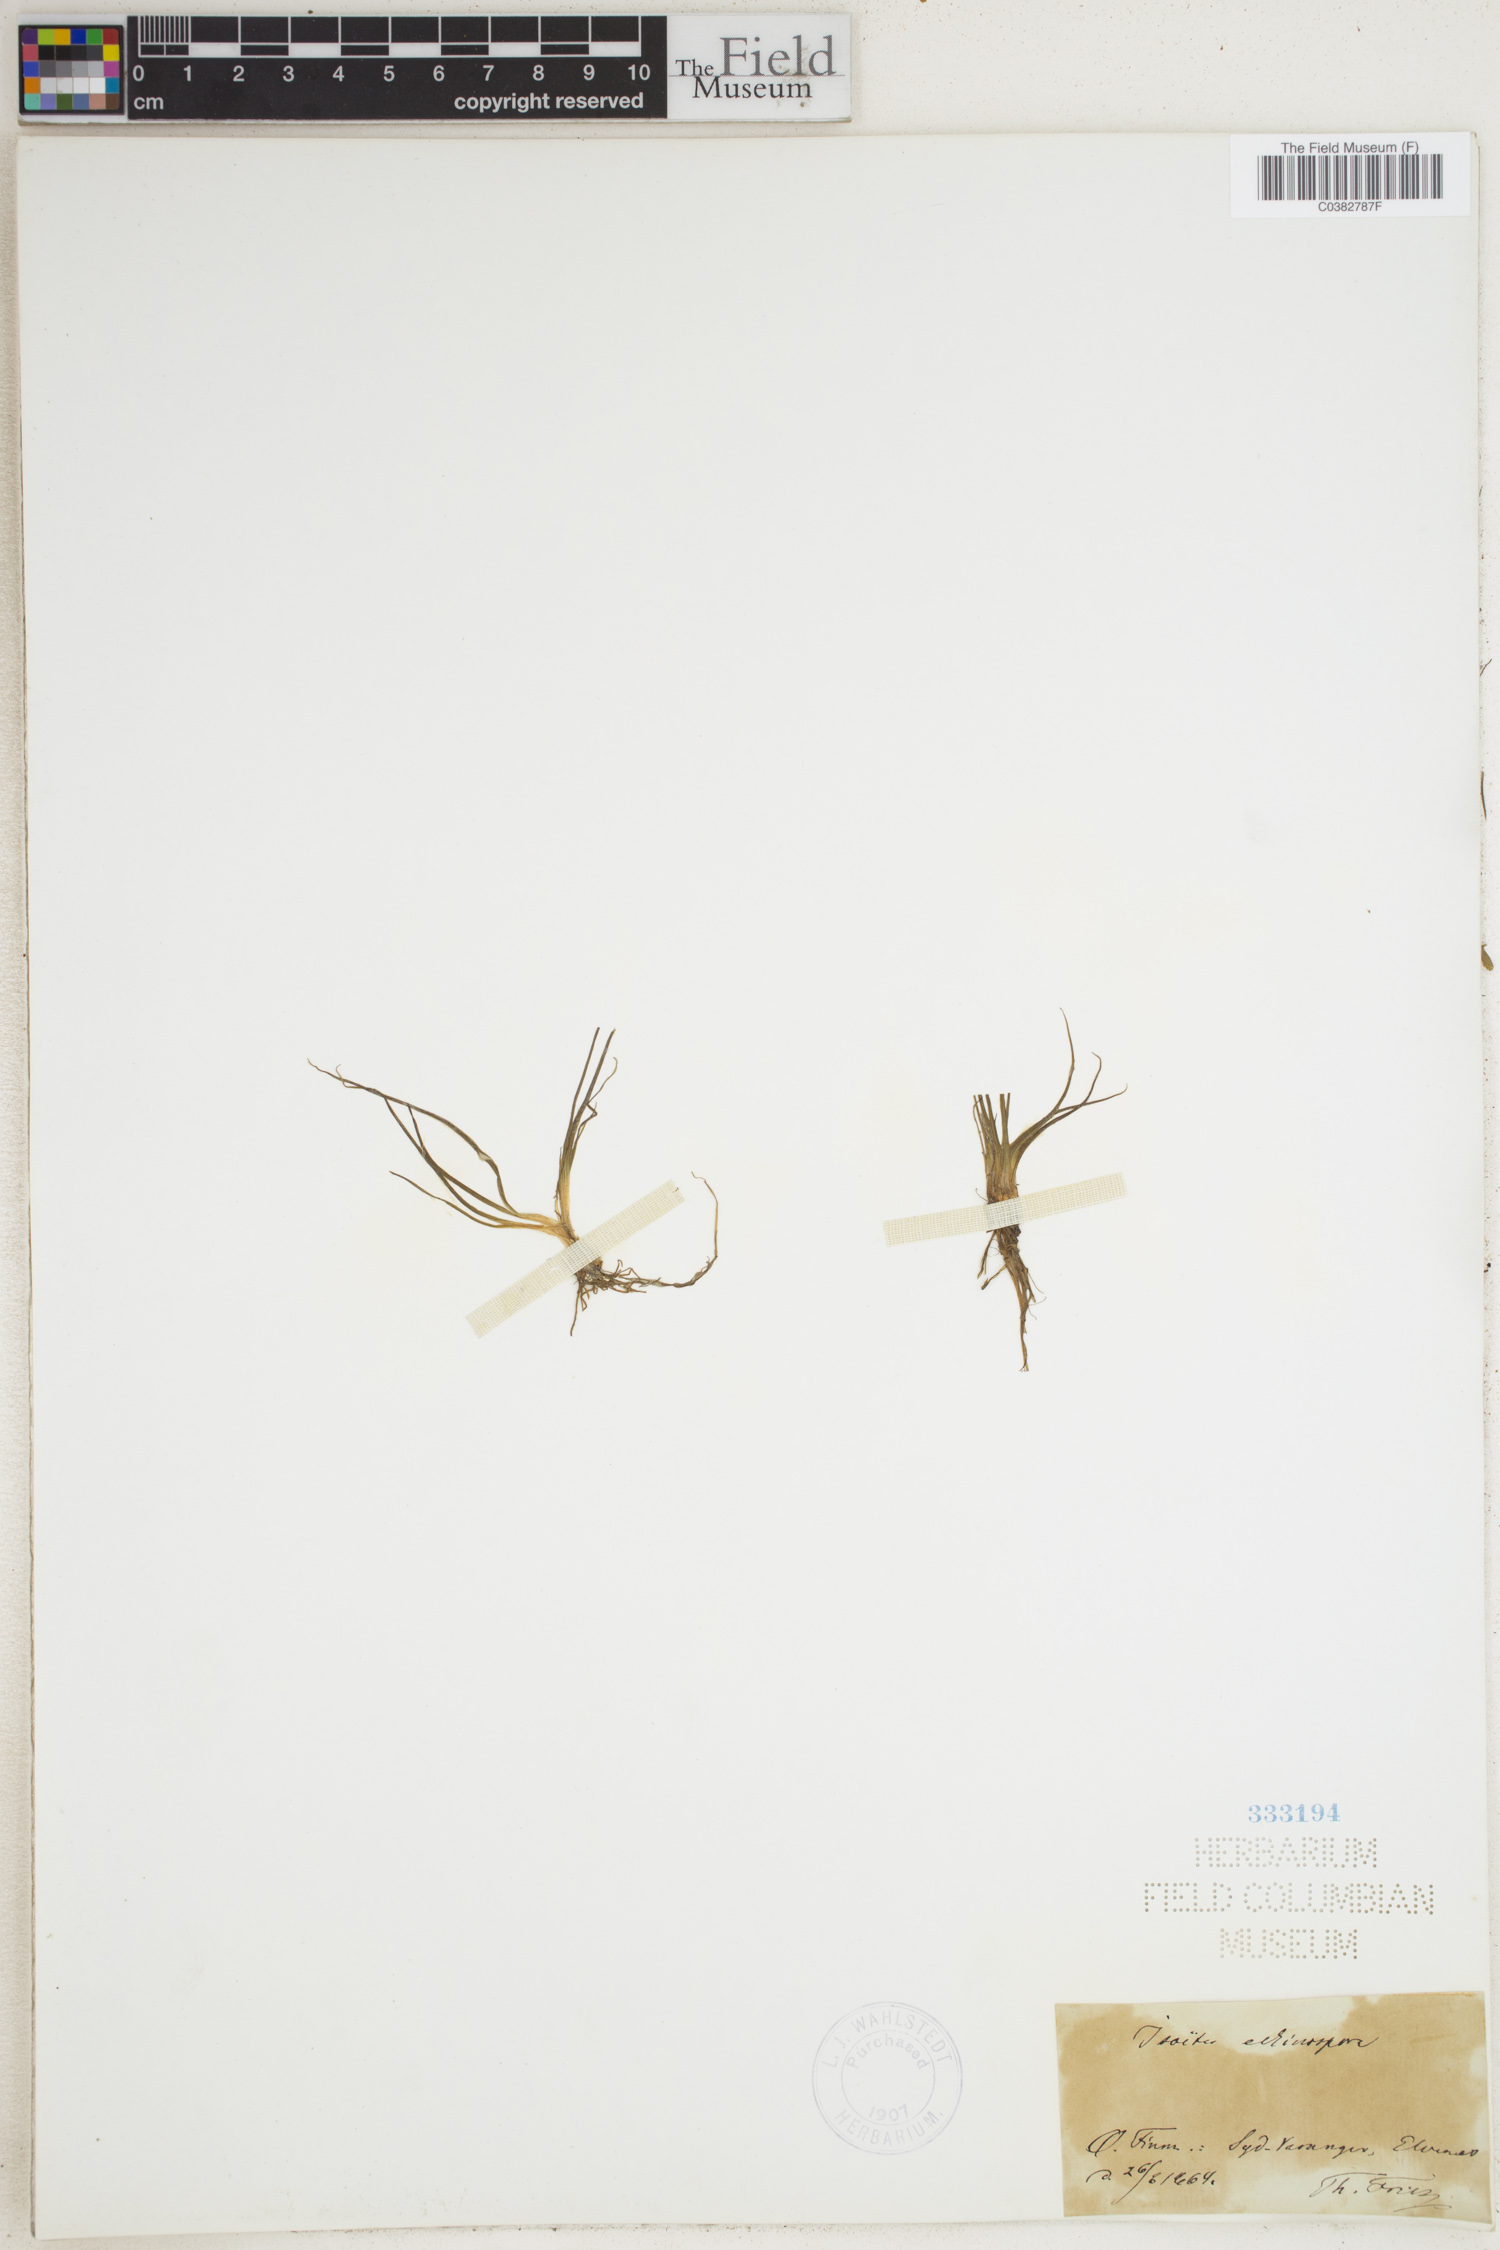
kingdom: Plantae
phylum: Tracheophyta
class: Lycopodiopsida
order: Isoetales
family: Isoetaceae
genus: Isoetes
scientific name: Isoetes echinospora
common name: Spring quillwort
